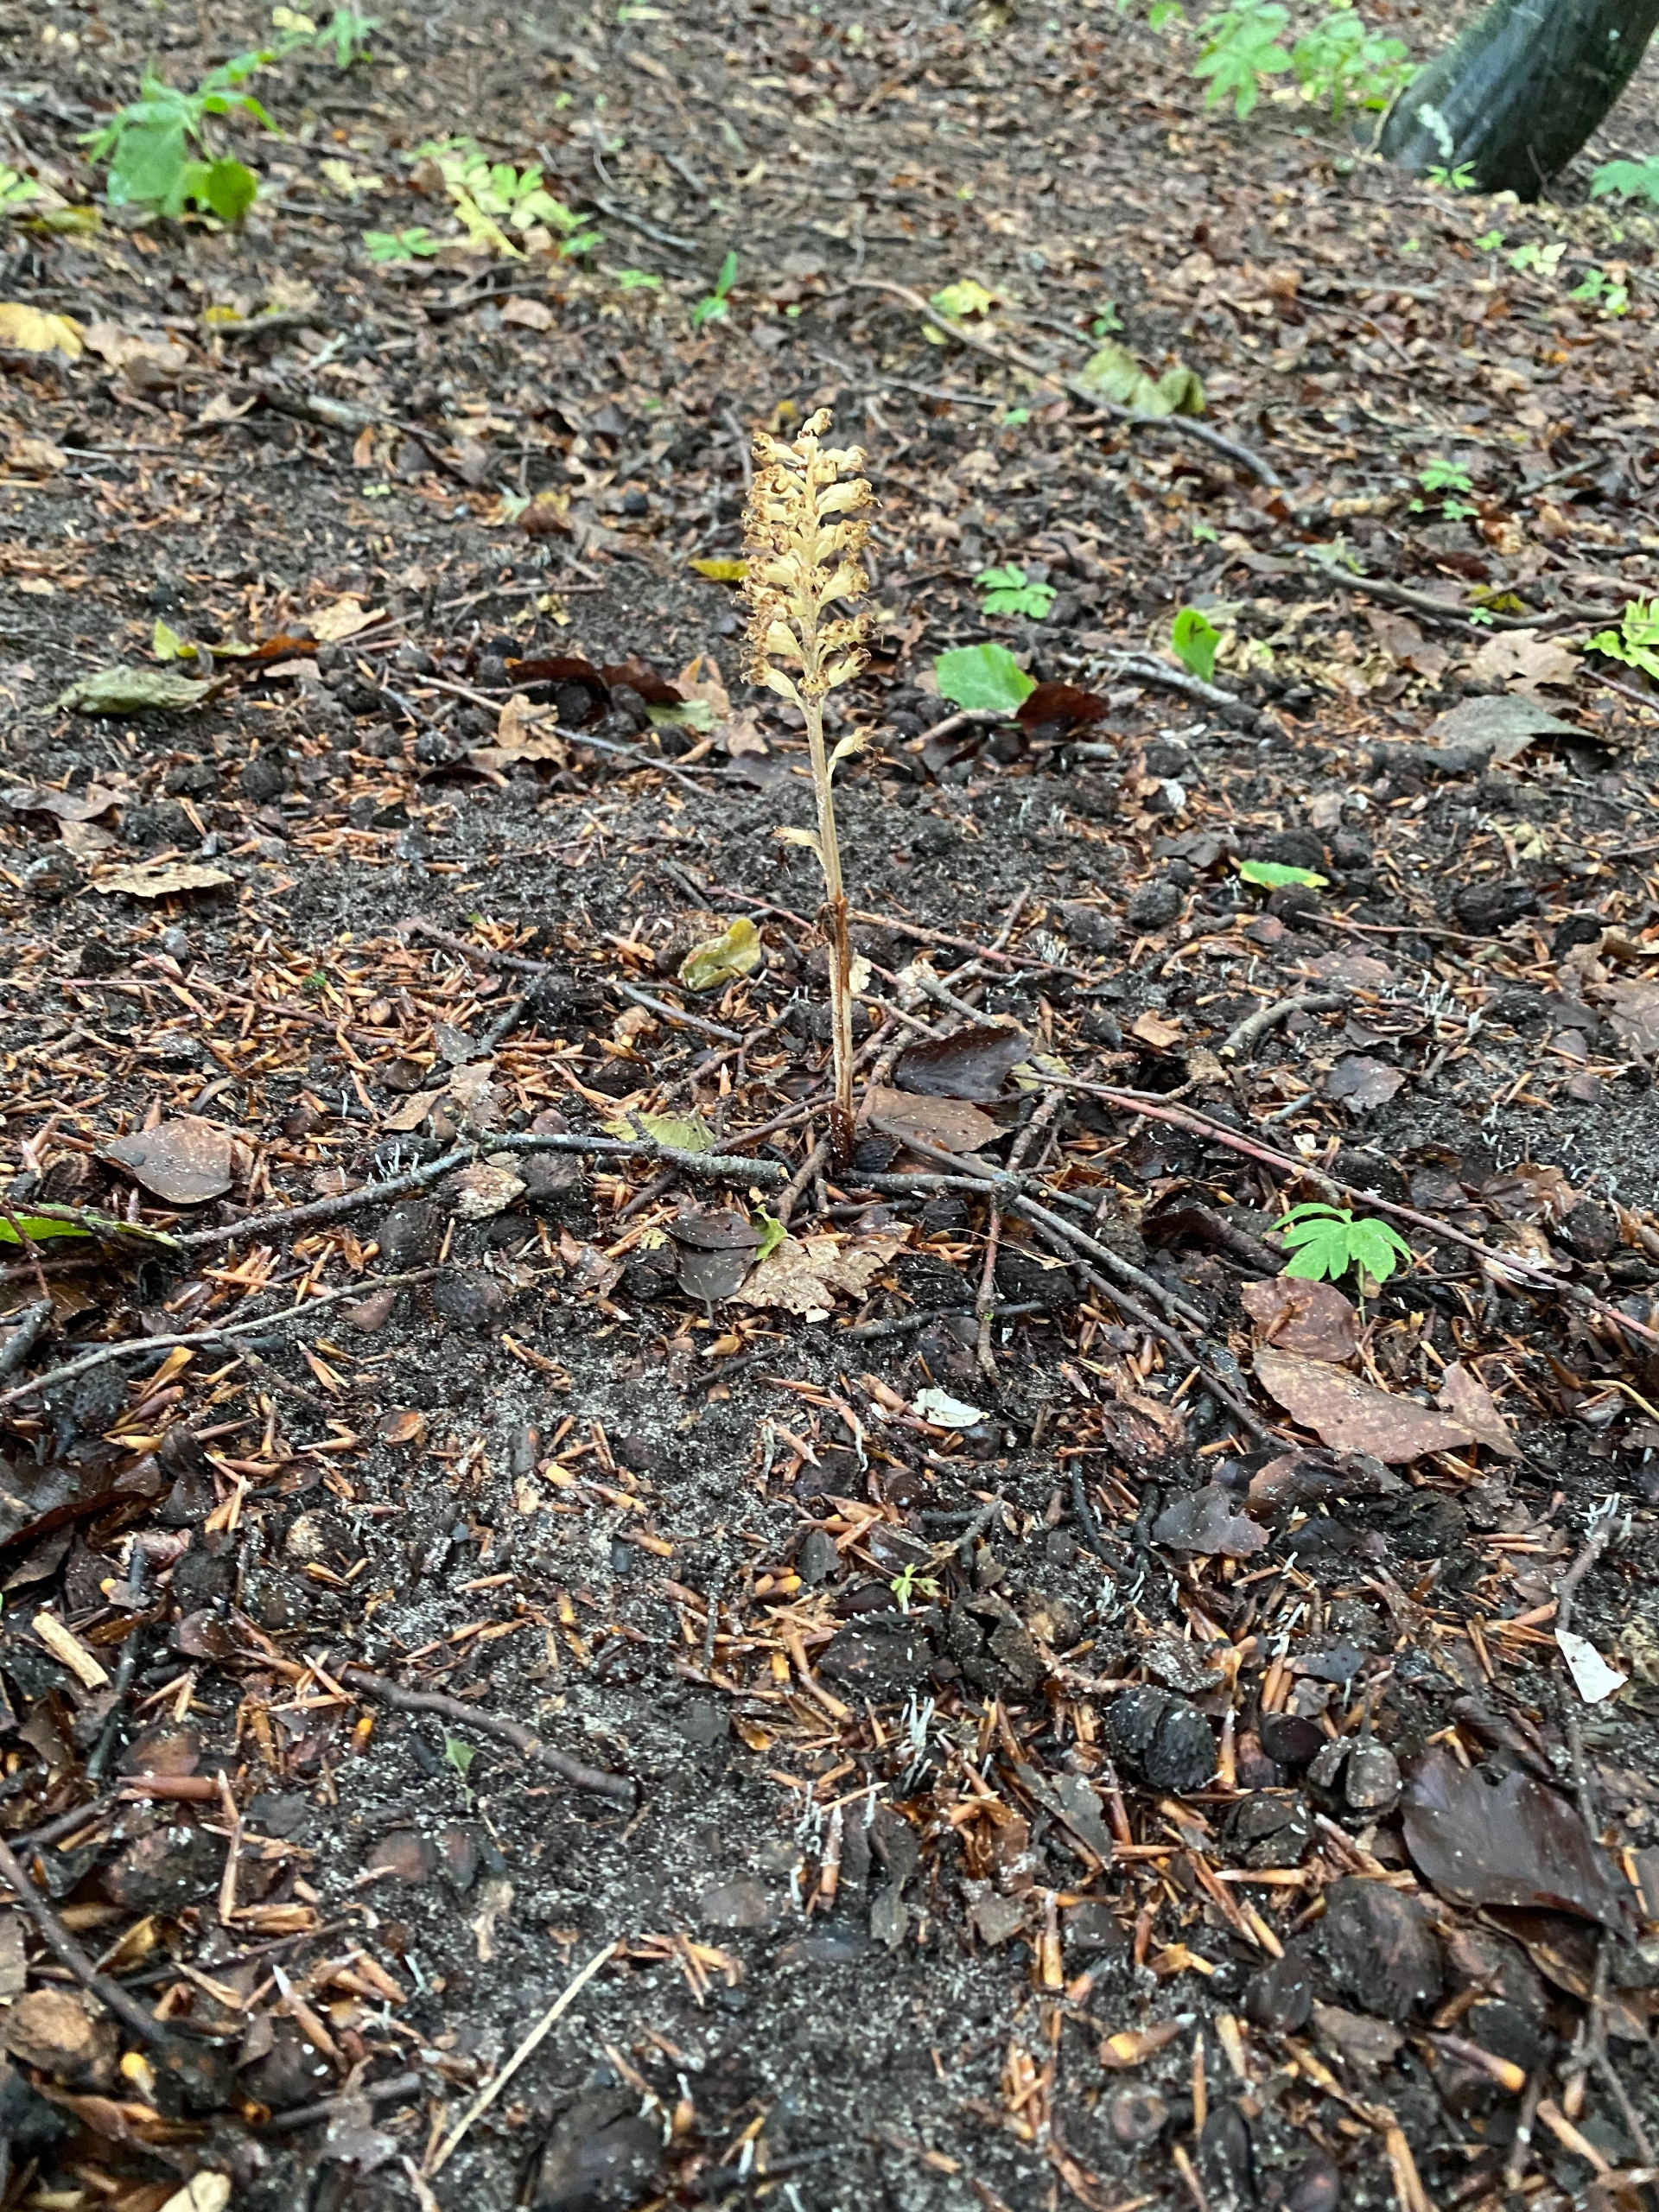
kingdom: Plantae
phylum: Tracheophyta
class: Liliopsida
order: Asparagales
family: Orchidaceae
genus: Neottia
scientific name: Neottia nidus-avis
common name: Rederod
